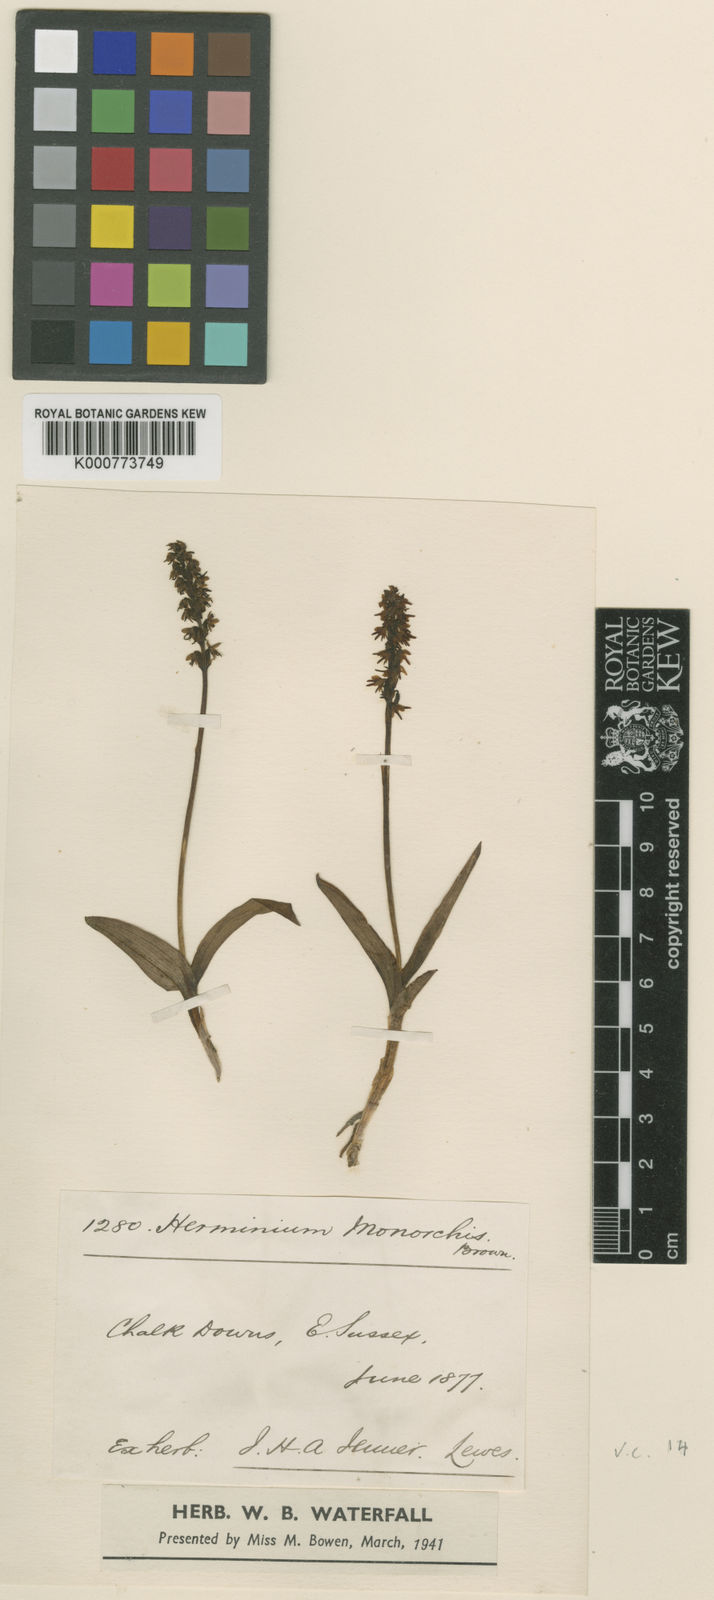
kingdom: Plantae
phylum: Tracheophyta
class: Liliopsida
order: Asparagales
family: Orchidaceae
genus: Herminium
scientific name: Herminium monorchis
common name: Musk orchid
